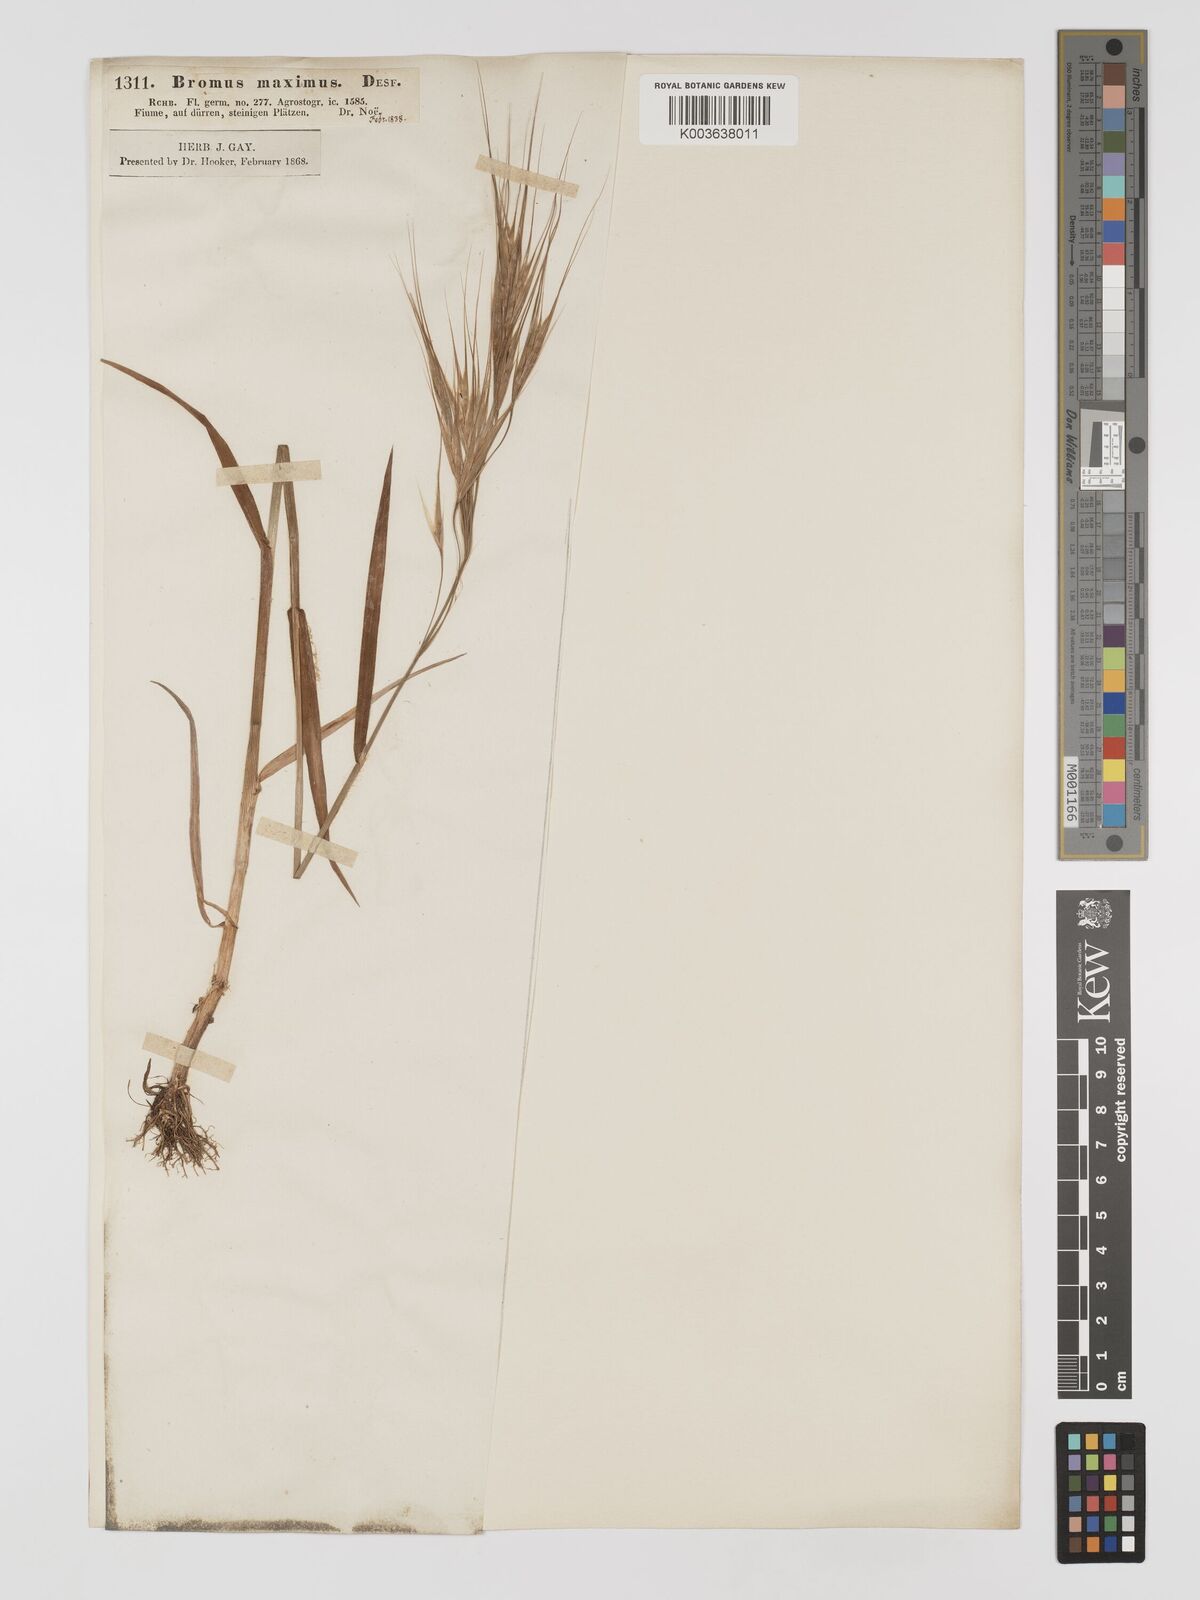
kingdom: Plantae
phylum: Tracheophyta
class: Liliopsida
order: Poales
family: Poaceae
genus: Bromus
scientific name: Bromus
